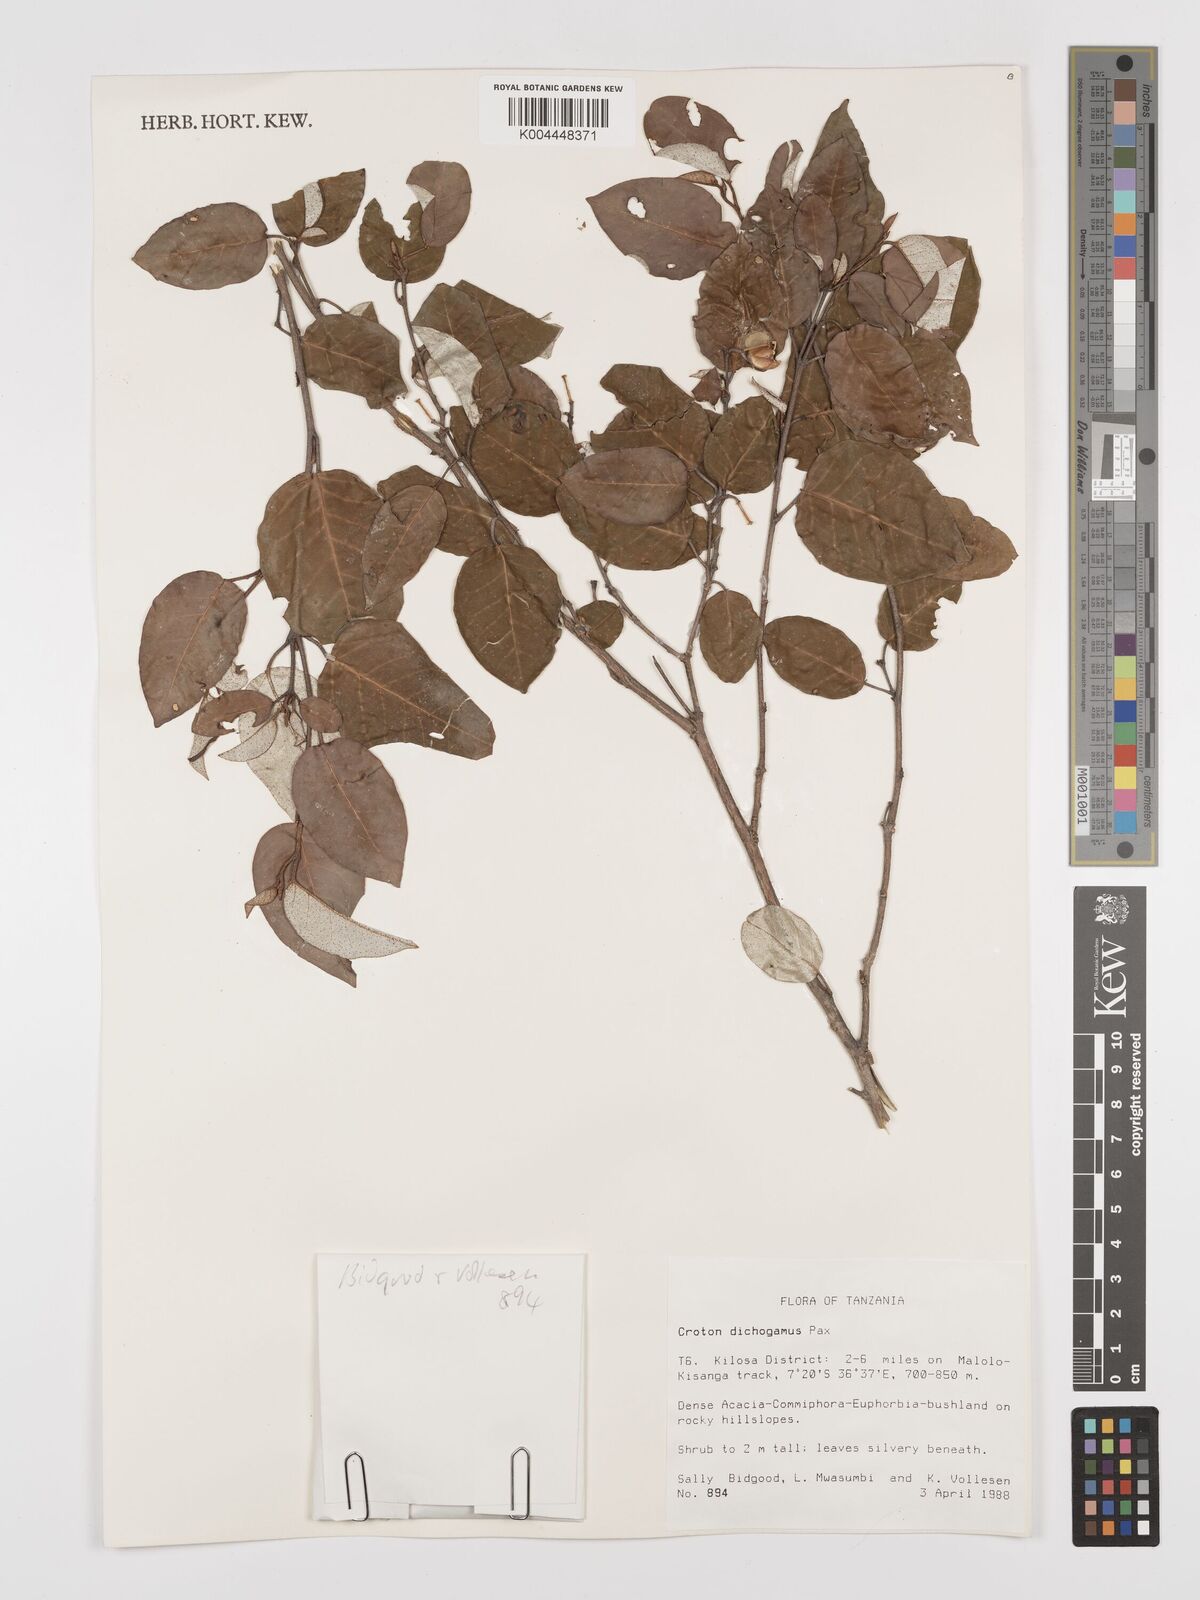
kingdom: Plantae
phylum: Tracheophyta
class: Magnoliopsida
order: Malpighiales
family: Euphorbiaceae
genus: Croton
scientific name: Croton dichogamus
